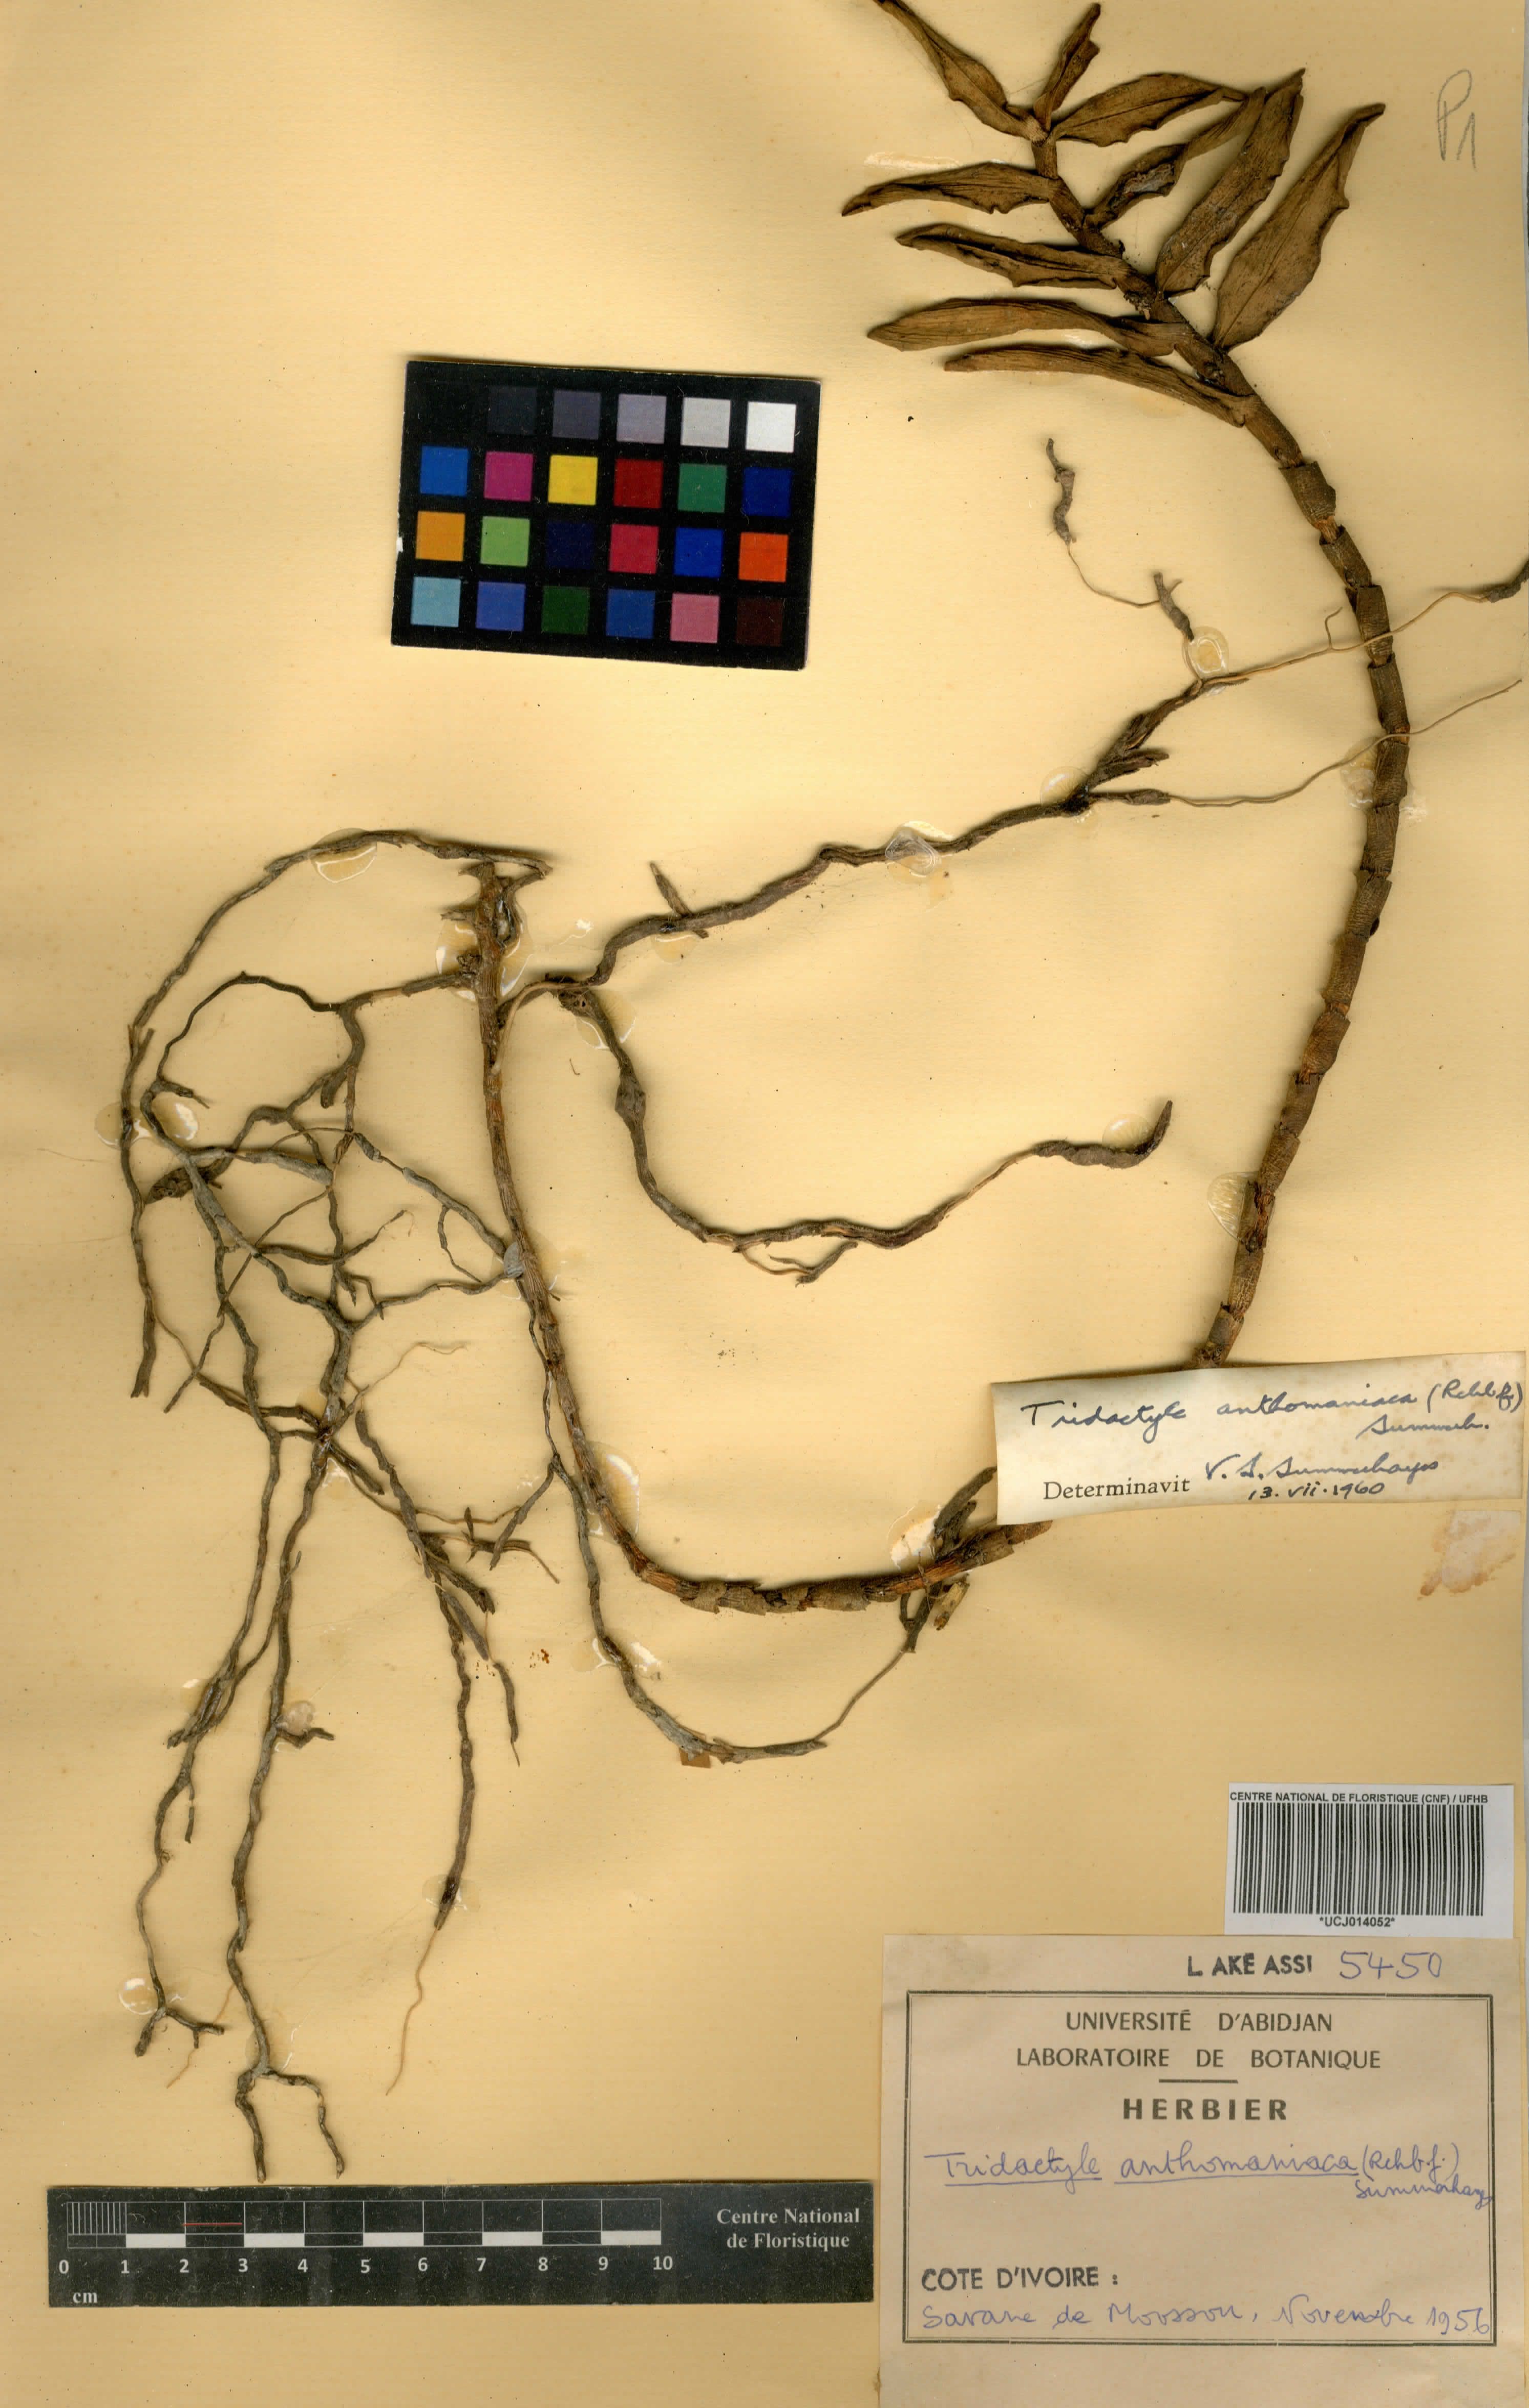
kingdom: Plantae
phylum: Tracheophyta
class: Liliopsida
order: Asparagales
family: Orchidaceae
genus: Tridactyle
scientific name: Tridactyle anthomaniaca
